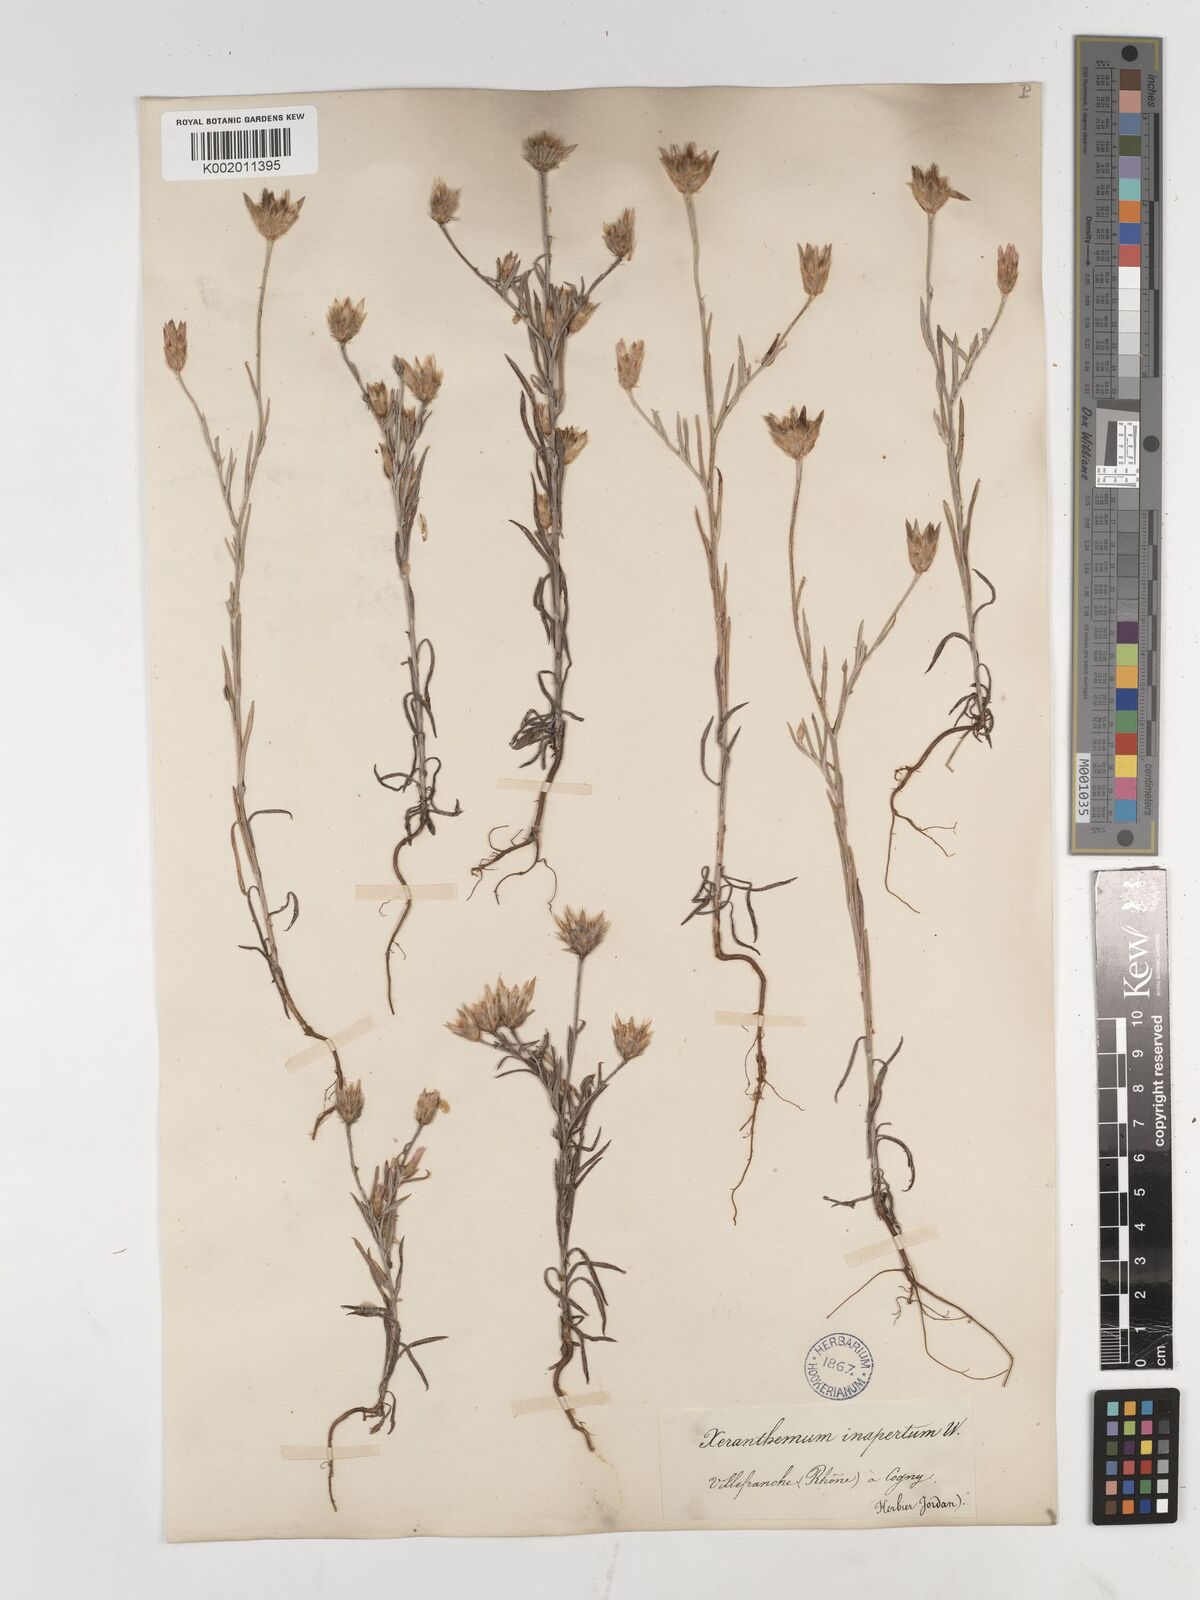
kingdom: Plantae
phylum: Tracheophyta
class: Magnoliopsida
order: Asterales
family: Asteraceae
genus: Xeranthemum
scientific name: Xeranthemum inapertum
